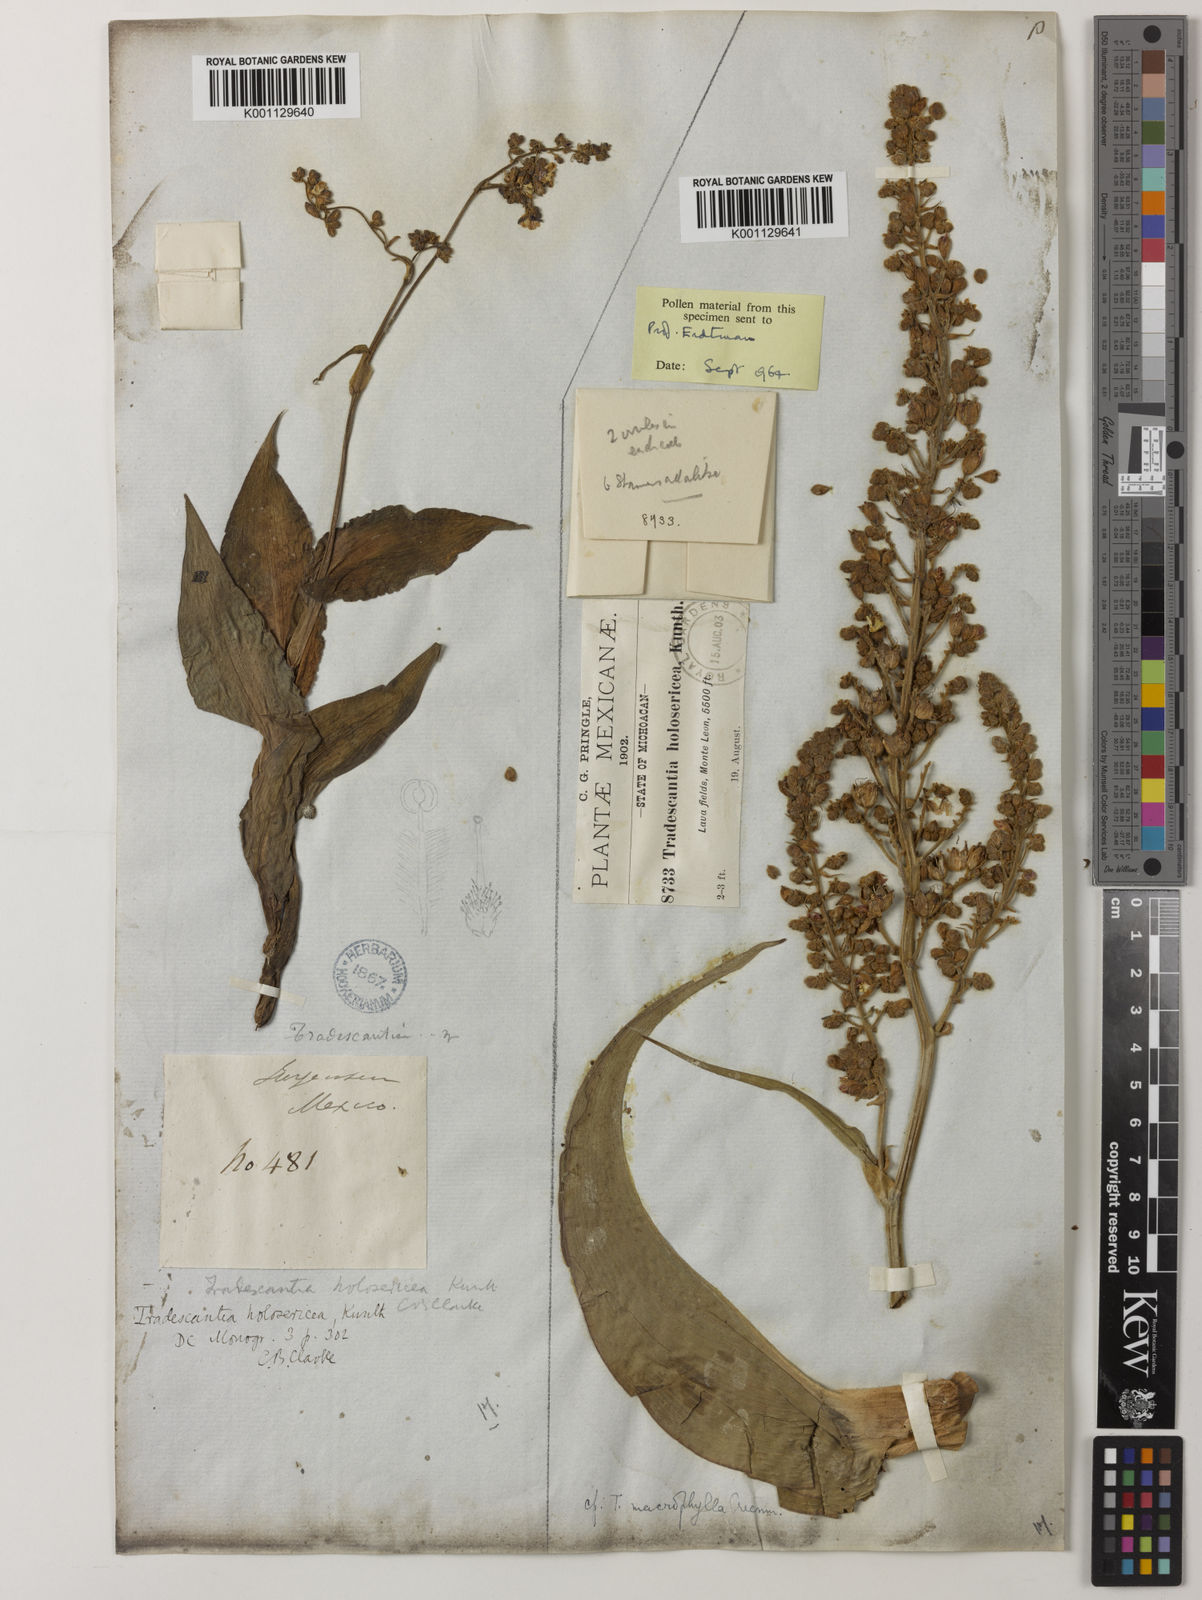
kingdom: Plantae
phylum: Tracheophyta
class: Liliopsida
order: Commelinales
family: Commelinaceae
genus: Thyrsanthemum
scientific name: Thyrsanthemum floribundum
